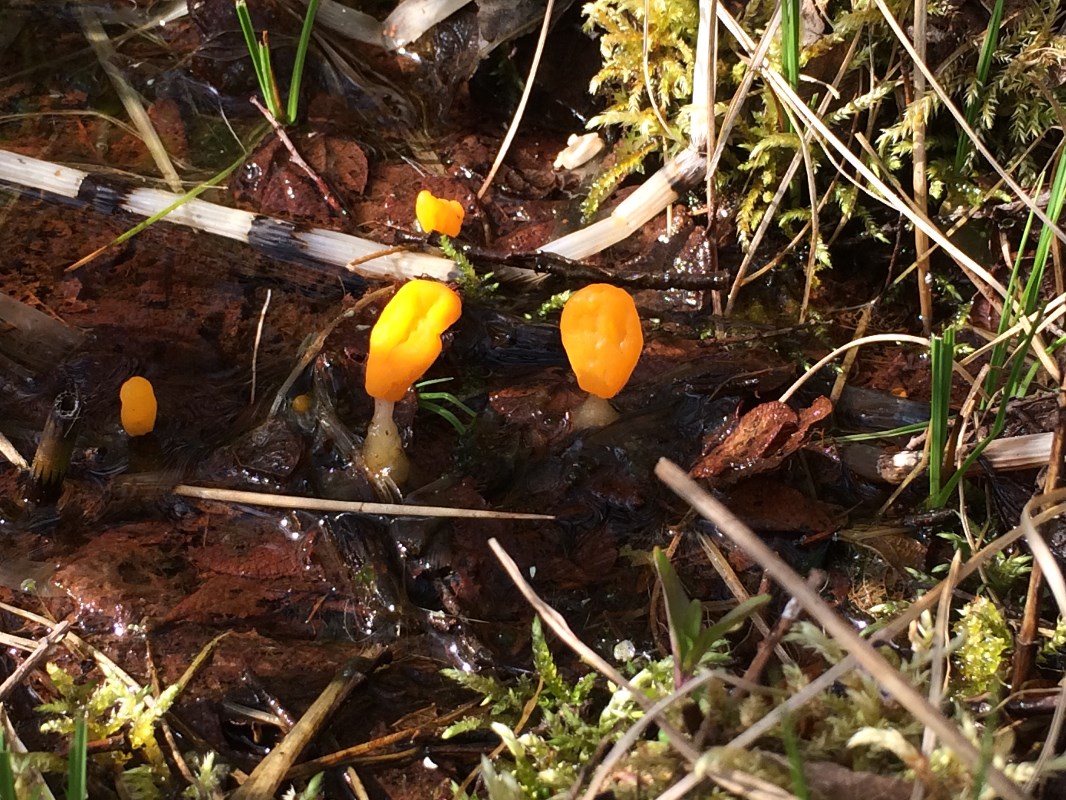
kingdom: Fungi
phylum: Ascomycota
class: Leotiomycetes
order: Helotiales
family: Cenangiaceae
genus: Mitrula
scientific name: Mitrula paludosa
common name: gul nøkketunge
